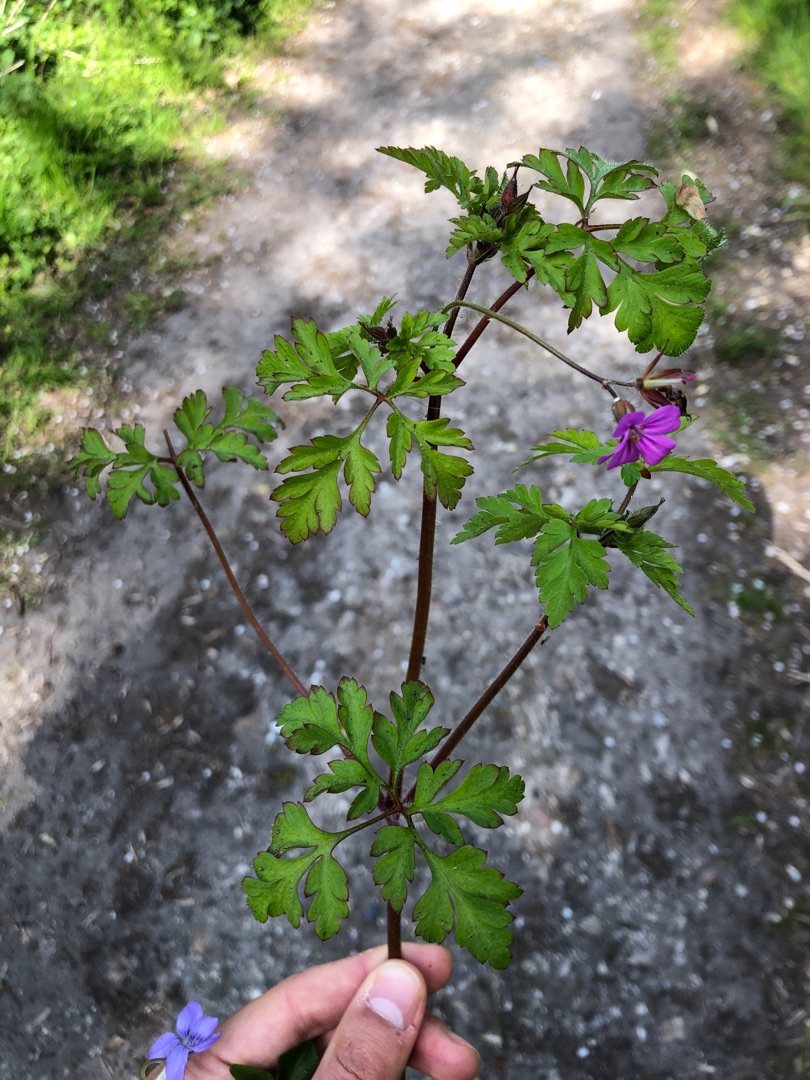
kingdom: Plantae
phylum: Tracheophyta
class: Magnoliopsida
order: Geraniales
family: Geraniaceae
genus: Geranium
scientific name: Geranium robertianum
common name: Stinkende storkenæb
